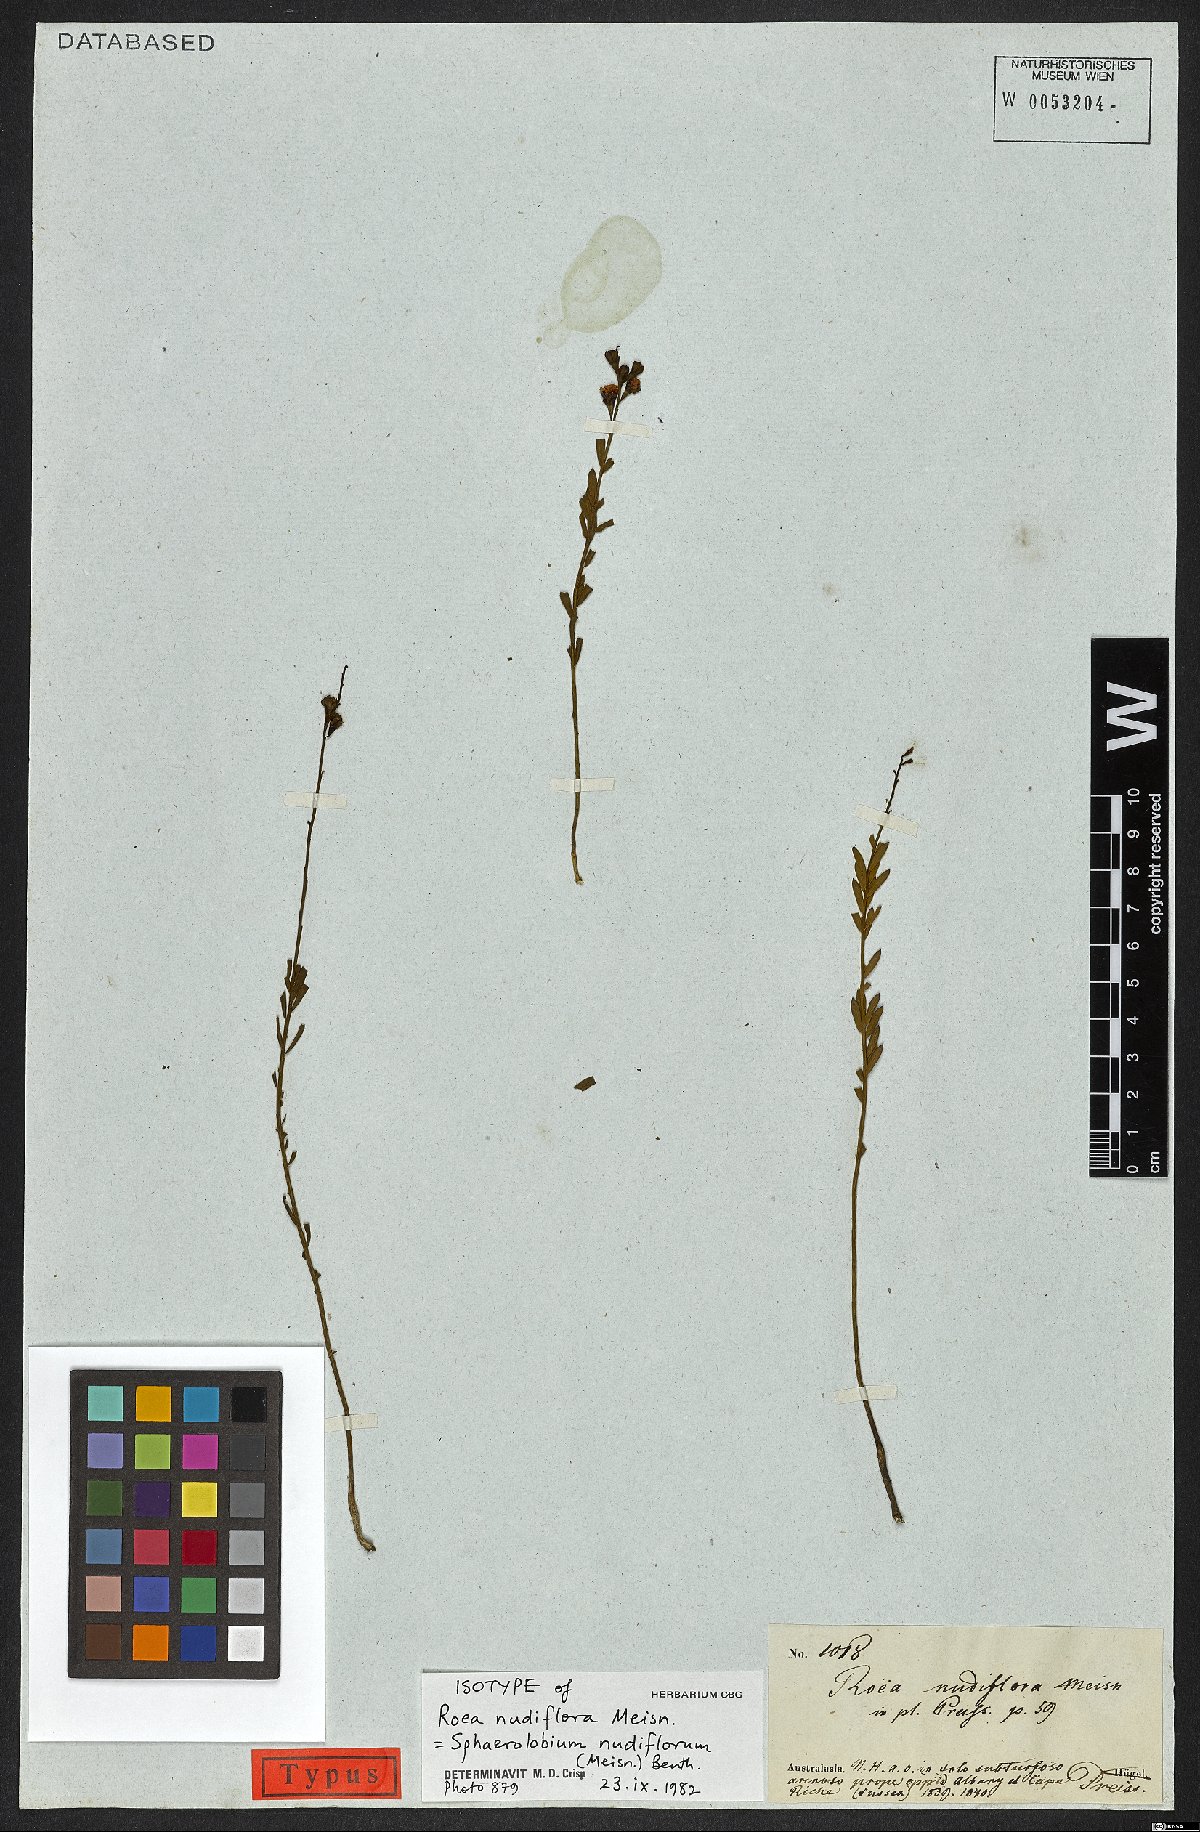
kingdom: Plantae
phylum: Tracheophyta
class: Magnoliopsida
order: Fabales
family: Fabaceae
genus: Sphaerolobium
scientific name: Sphaerolobium nudiflorum
